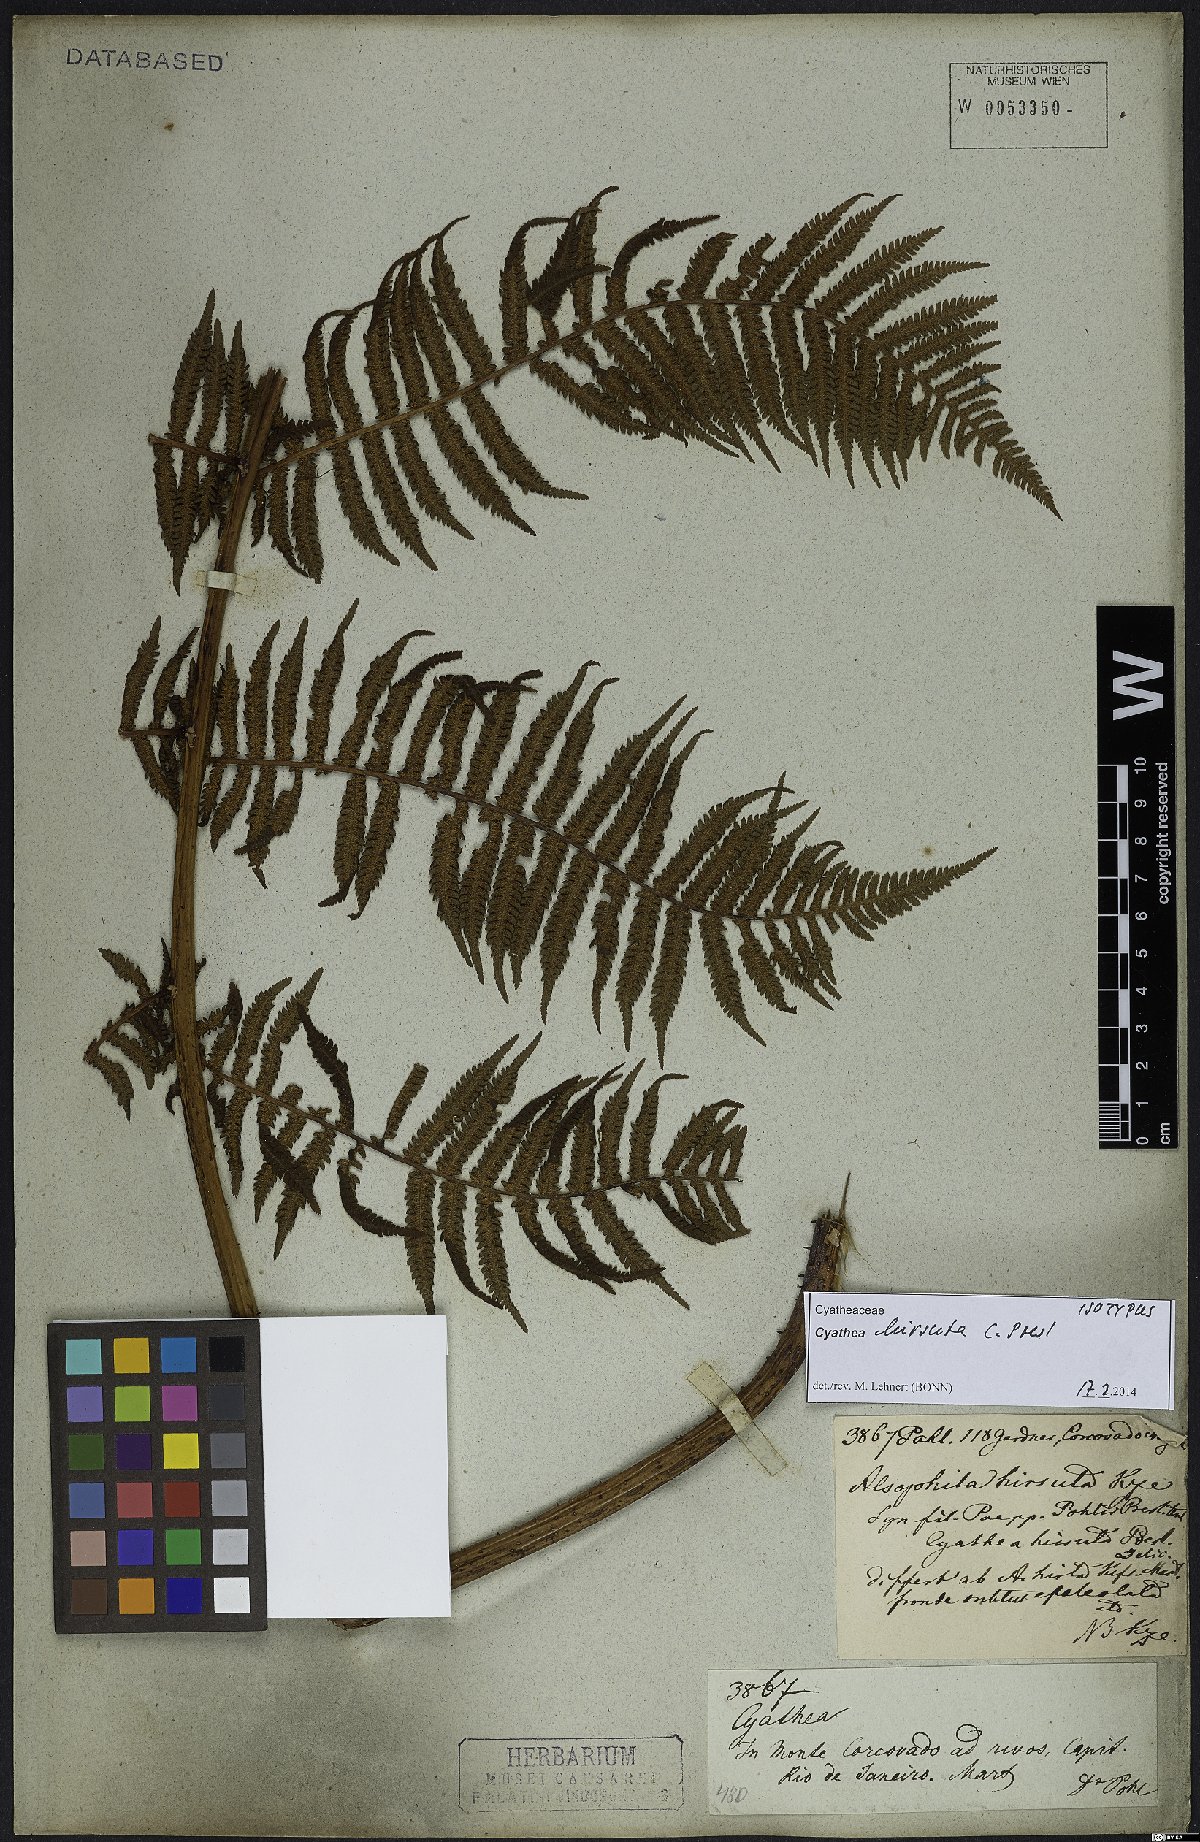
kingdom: Plantae
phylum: Tracheophyta
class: Polypodiopsida
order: Cyatheales
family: Cyatheaceae
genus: Cyathea
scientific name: Cyathea hirsuta
